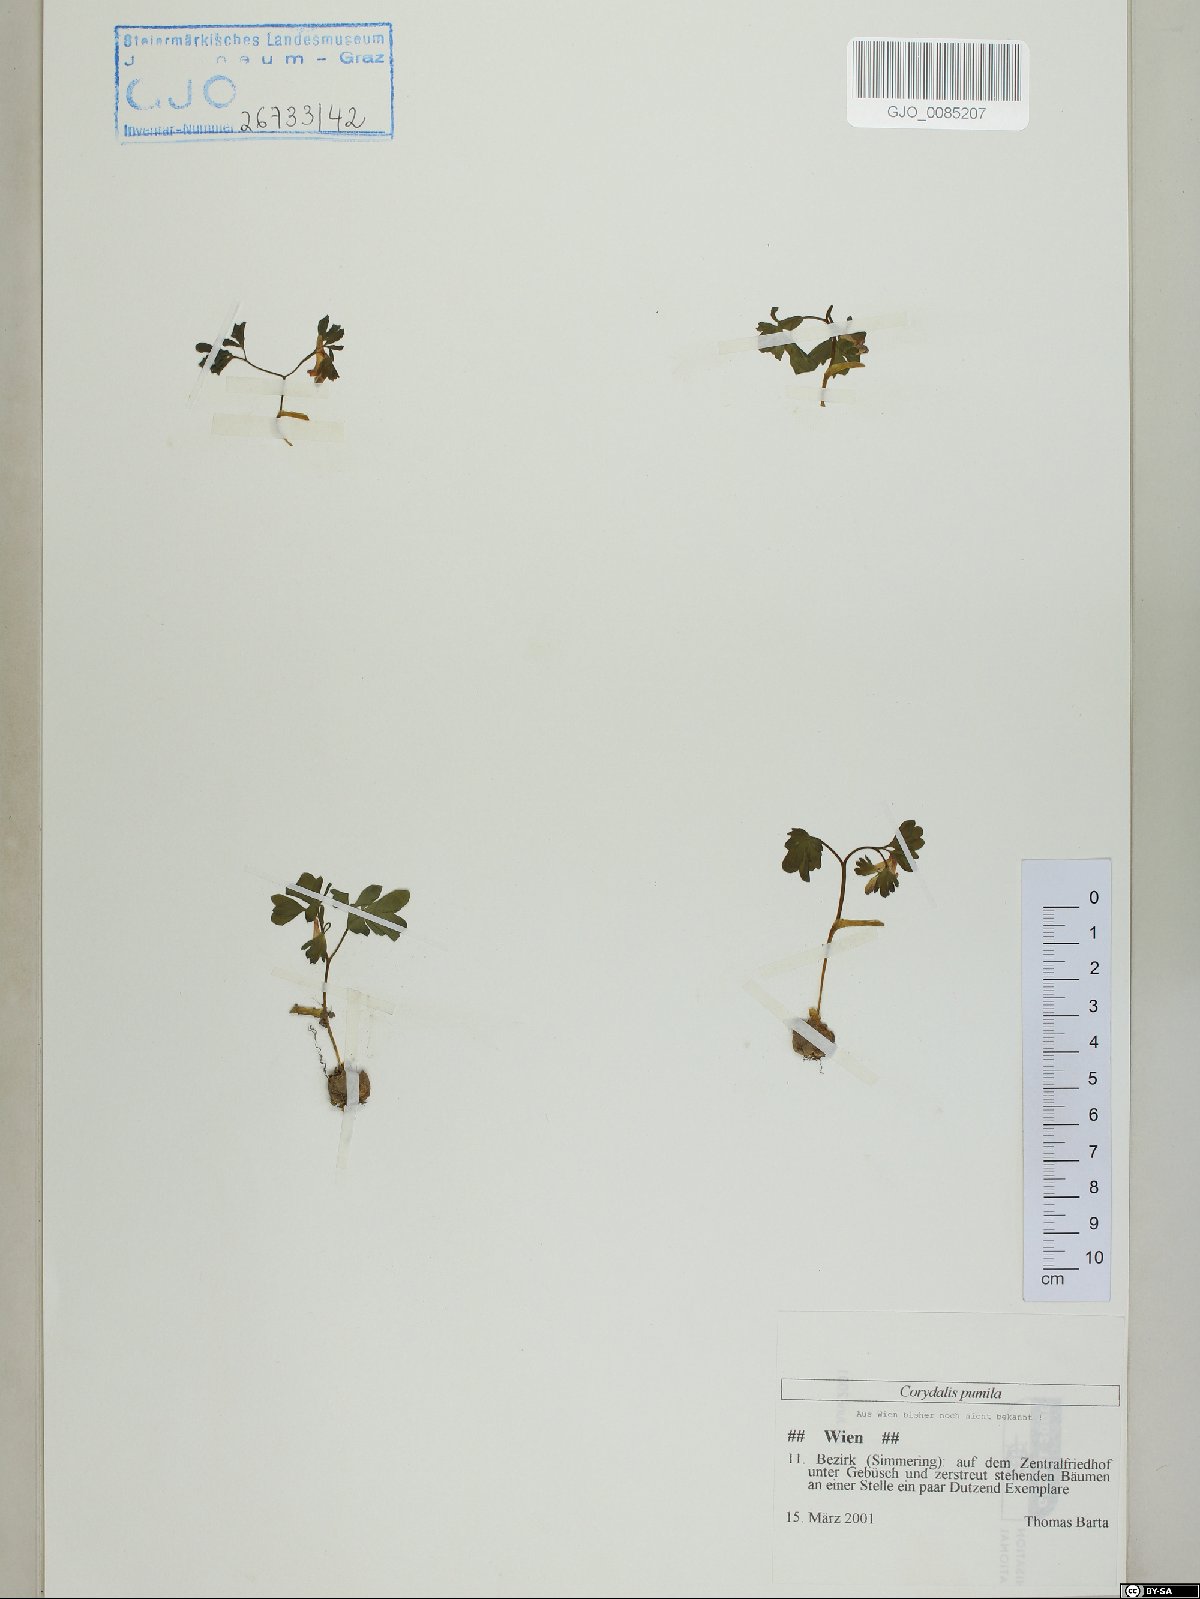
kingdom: Plantae
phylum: Tracheophyta
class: Magnoliopsida
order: Ranunculales
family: Papaveraceae
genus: Corydalis
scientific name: Corydalis pumila
